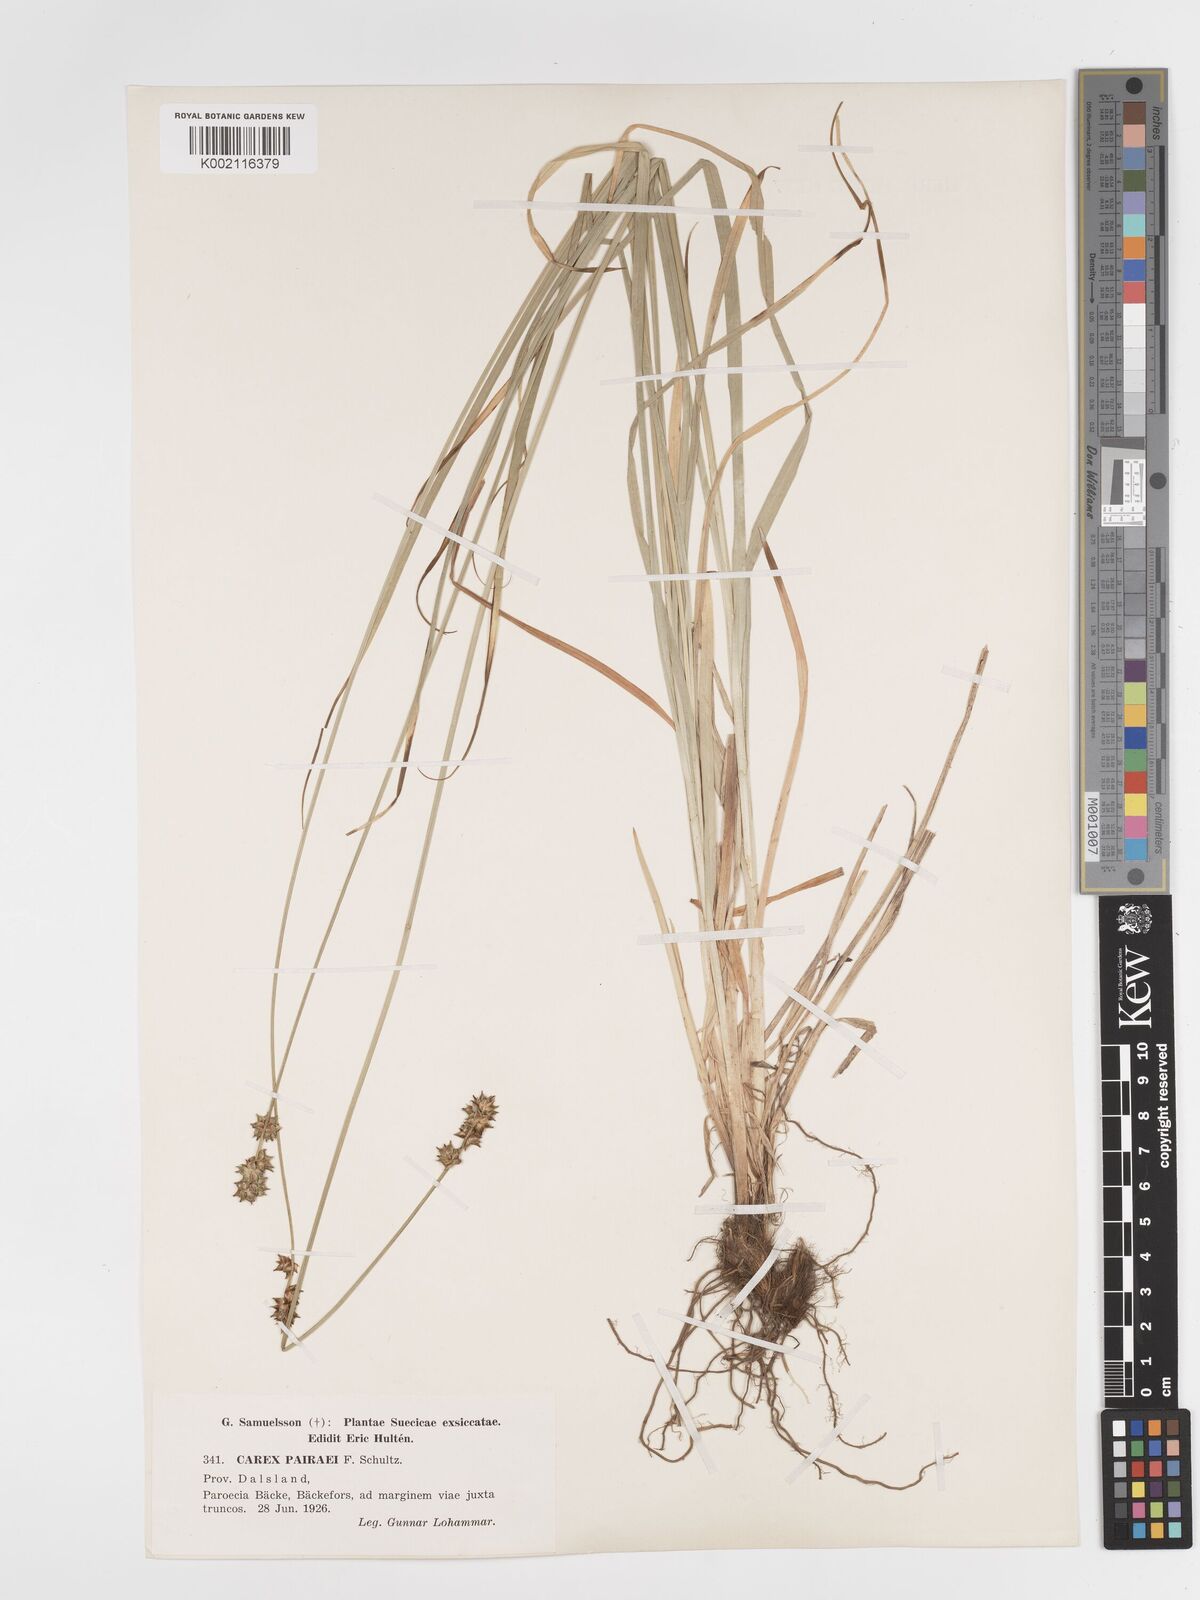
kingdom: Plantae
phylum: Tracheophyta
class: Liliopsida
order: Poales
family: Cyperaceae
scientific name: Cyperaceae
